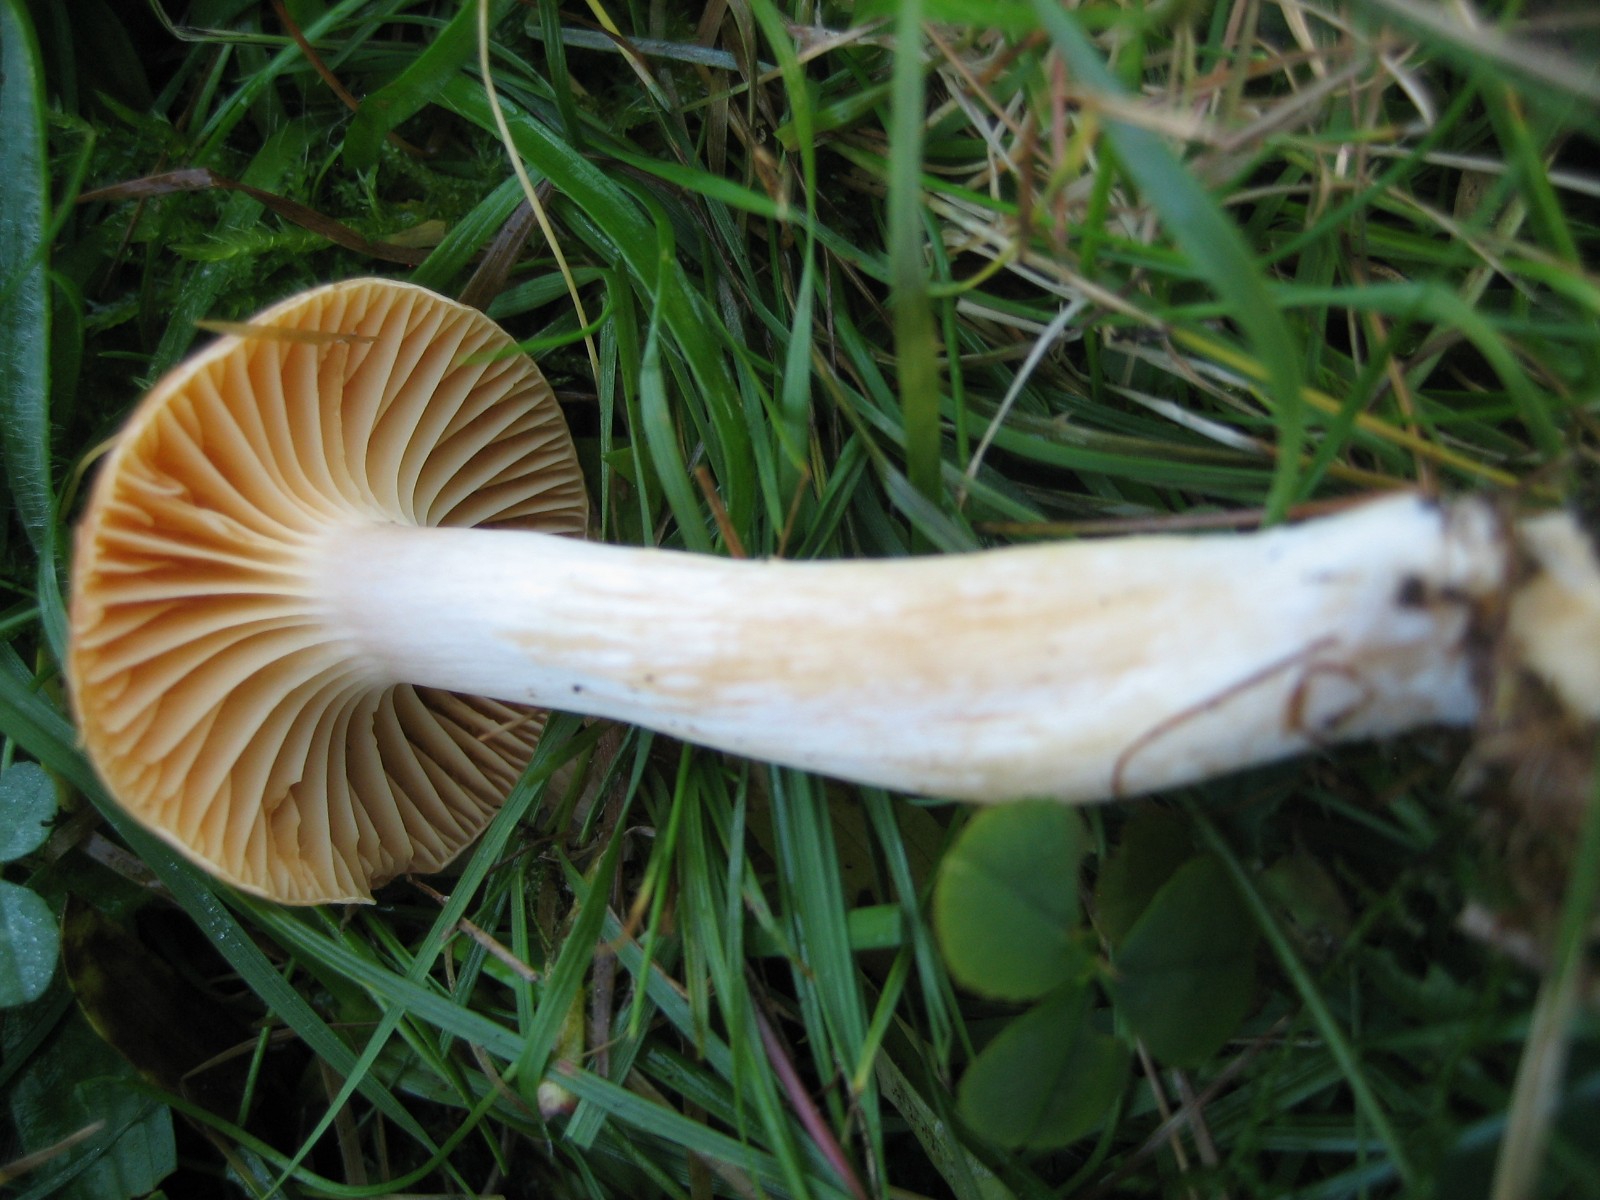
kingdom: Fungi
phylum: Basidiomycota
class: Agaricomycetes
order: Agaricales
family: Hygrophoraceae
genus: Cuphophyllus
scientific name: Cuphophyllus pratensis
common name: eng-vokshat
